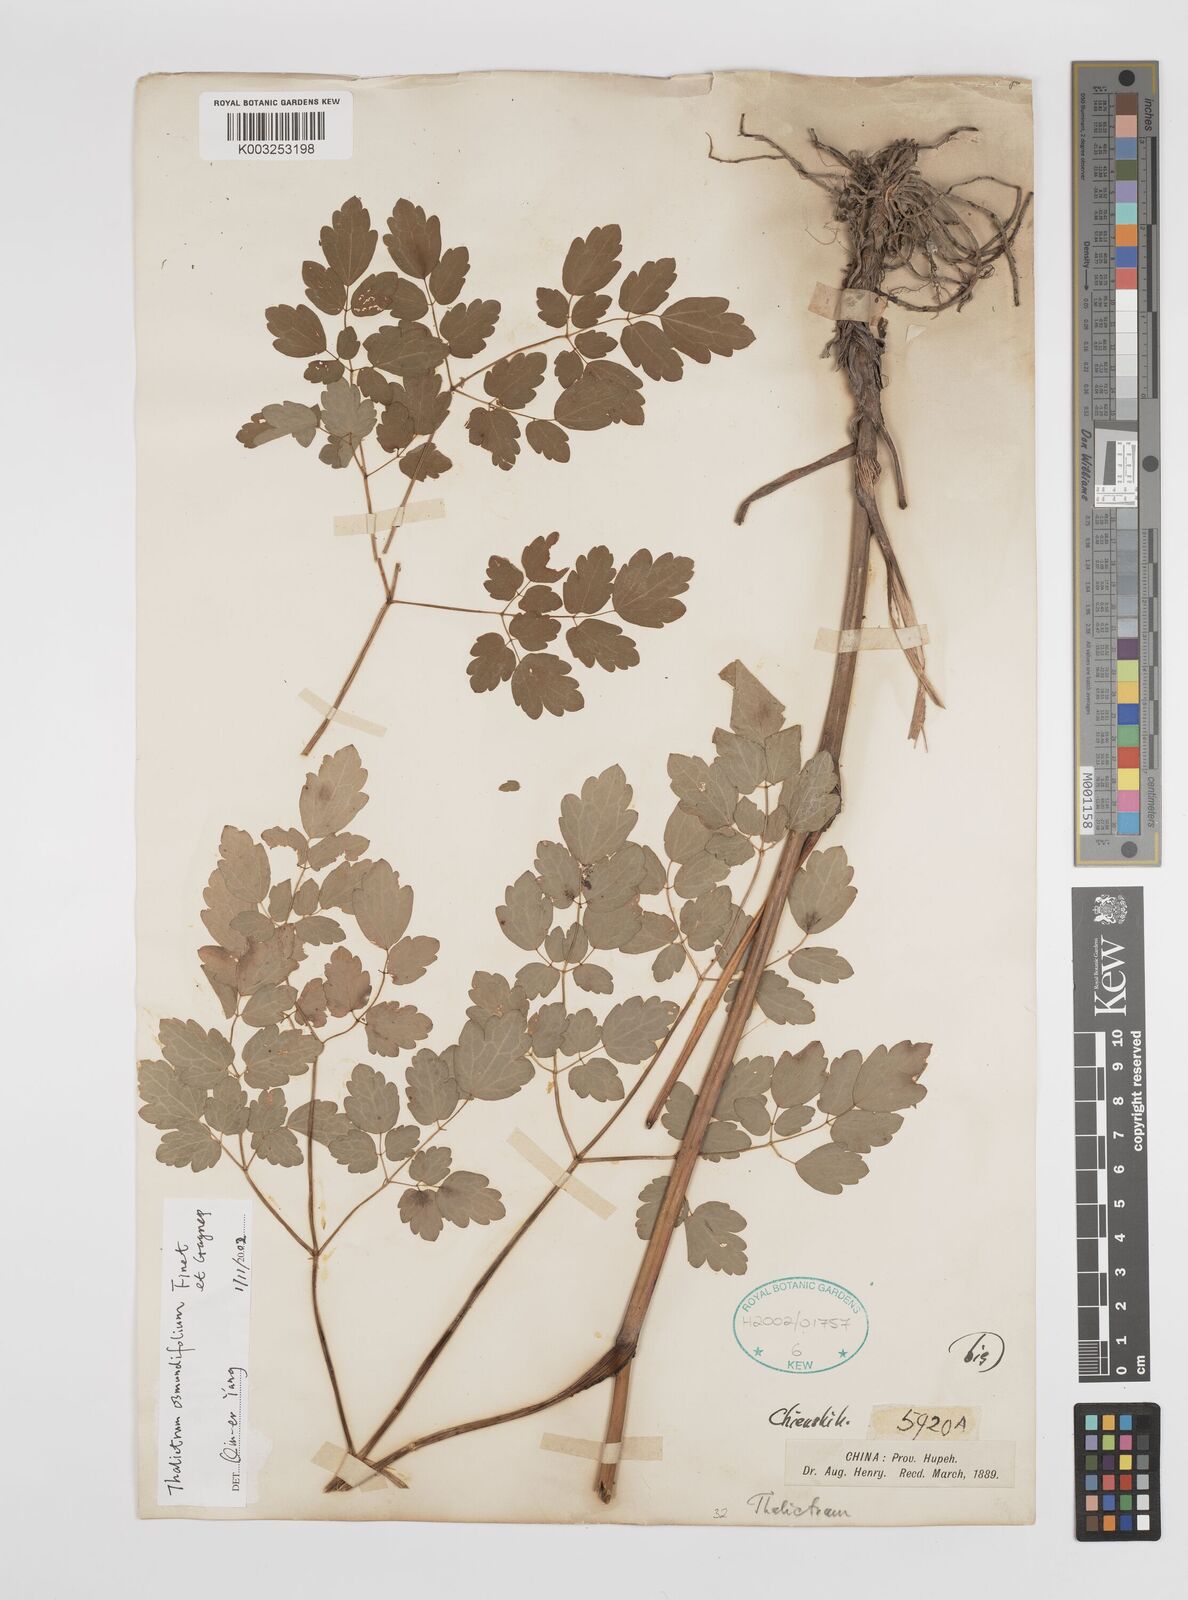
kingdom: Plantae
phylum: Tracheophyta
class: Magnoliopsida
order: Ranunculales
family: Ranunculaceae
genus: Thalictrum
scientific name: Thalictrum javanicum
